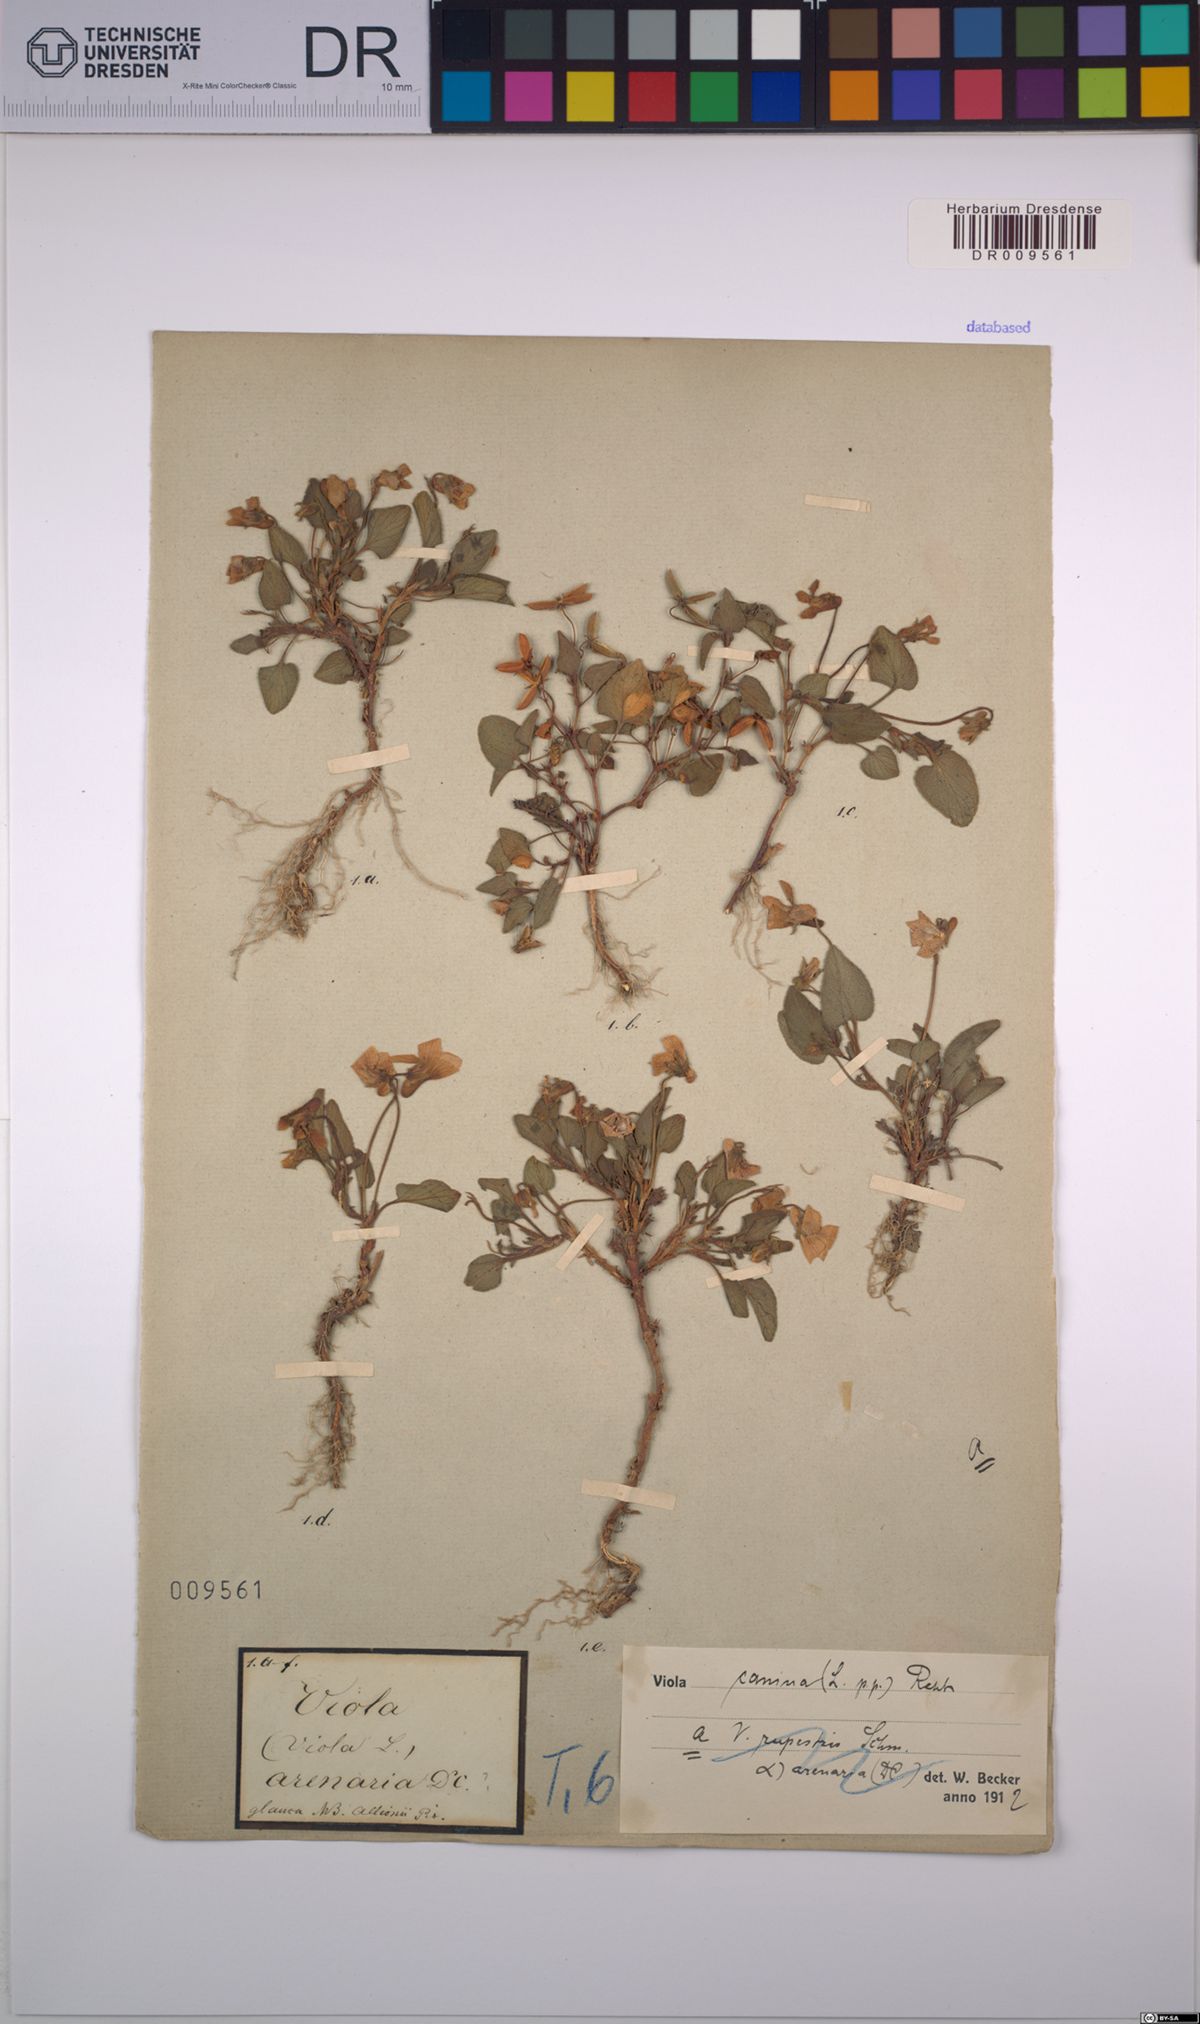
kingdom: Plantae
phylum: Tracheophyta
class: Magnoliopsida
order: Malpighiales
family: Violaceae
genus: Viola
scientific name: Viola canina
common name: Heath dog-violet
